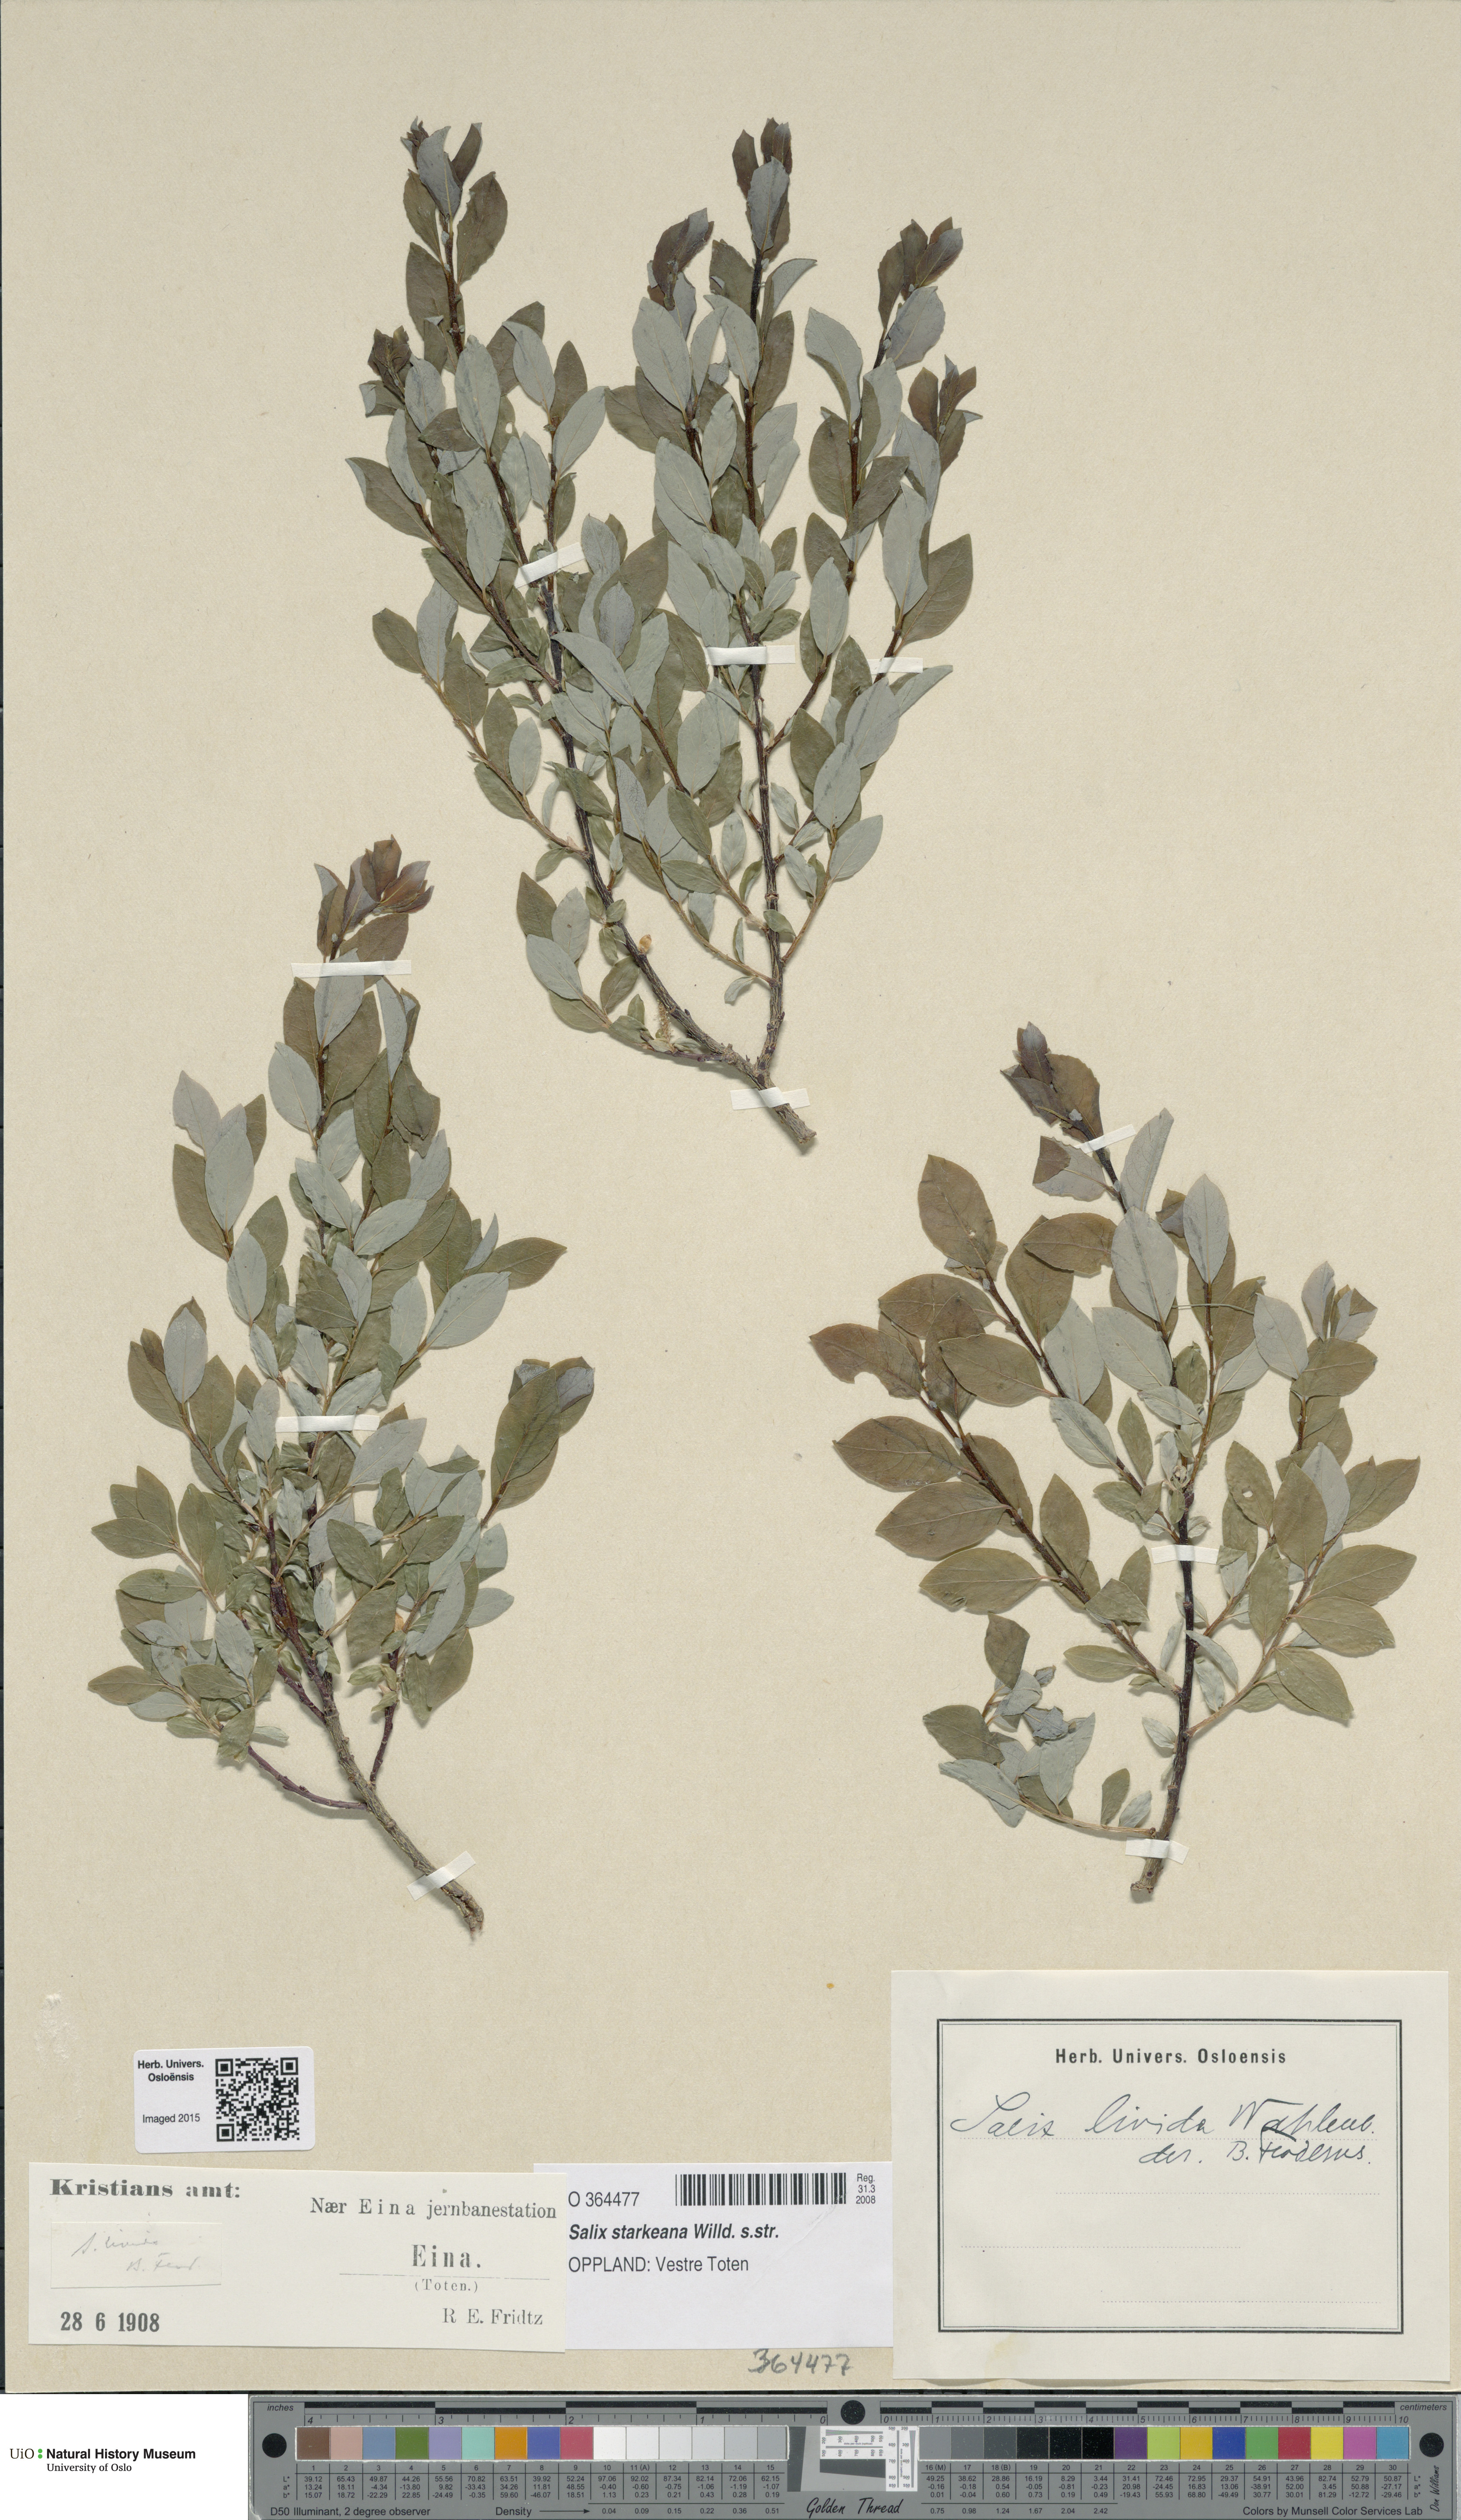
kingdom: Plantae
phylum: Tracheophyta
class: Magnoliopsida
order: Malpighiales
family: Salicaceae
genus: Salix
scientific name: Salix starkeana
